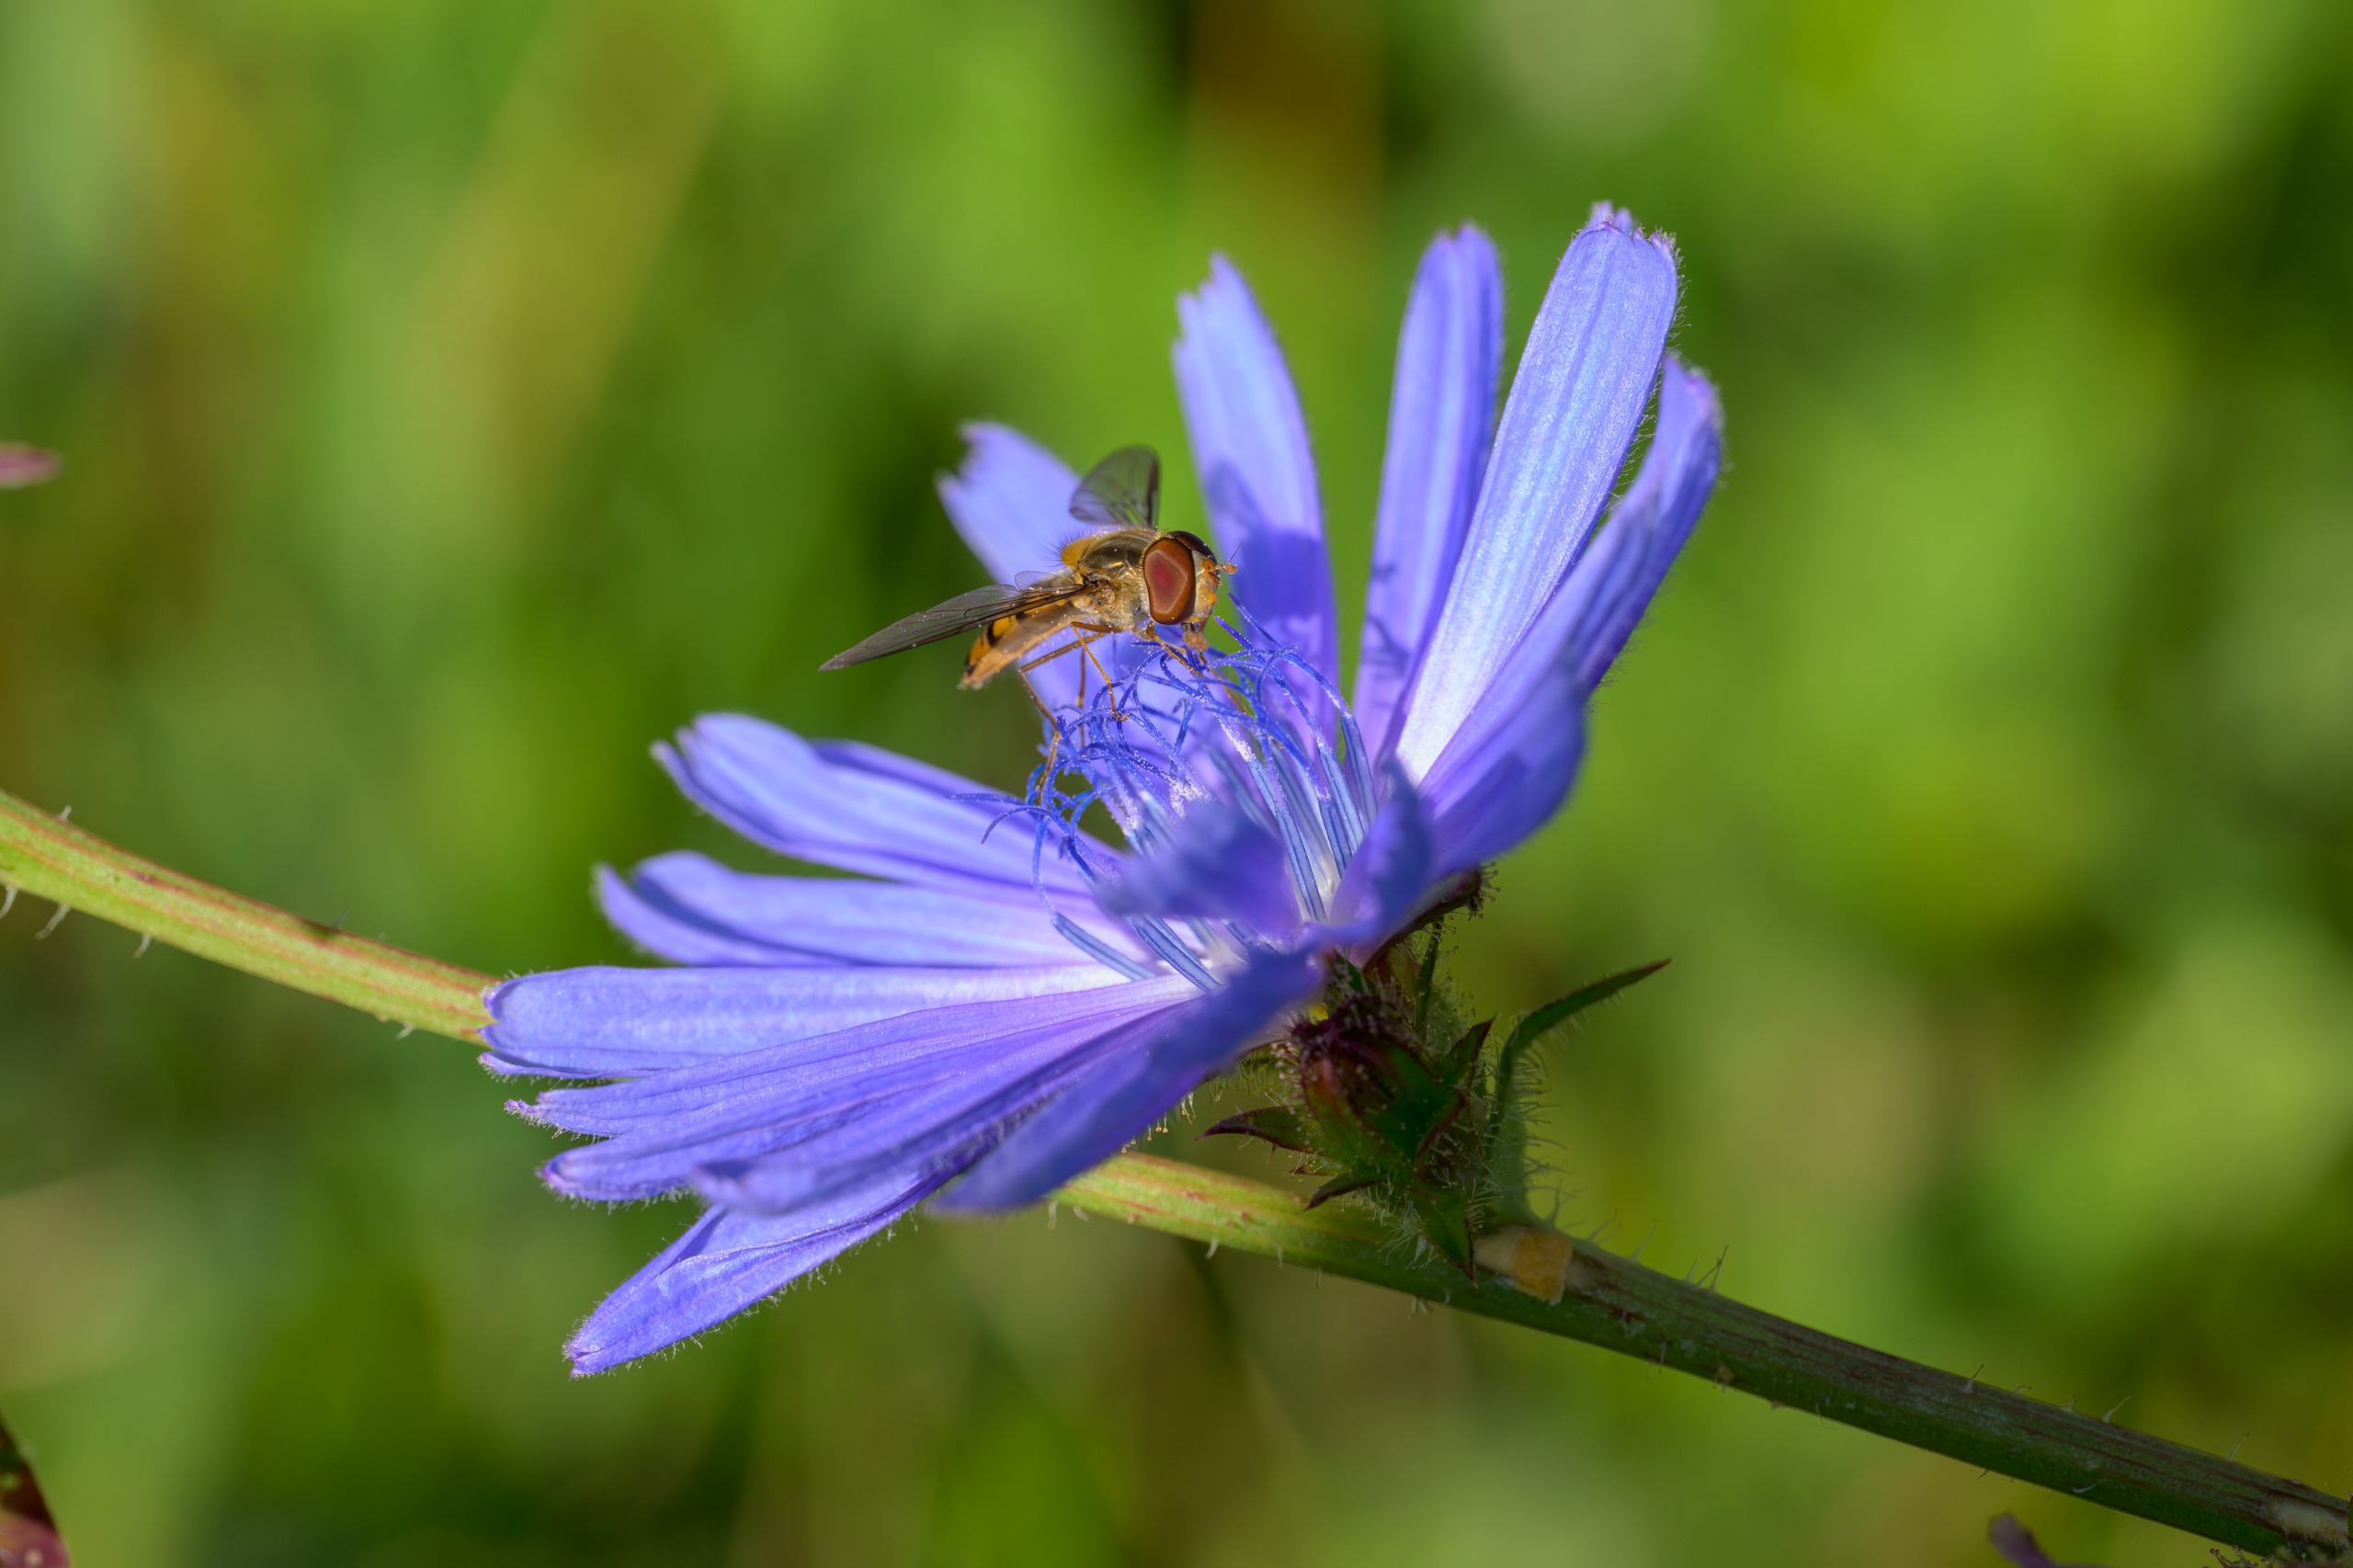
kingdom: Animalia
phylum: Arthropoda
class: Insecta
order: Diptera
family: Syrphidae
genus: Episyrphus
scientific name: Episyrphus balteatus
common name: Dobbeltbåndet svirreflue
